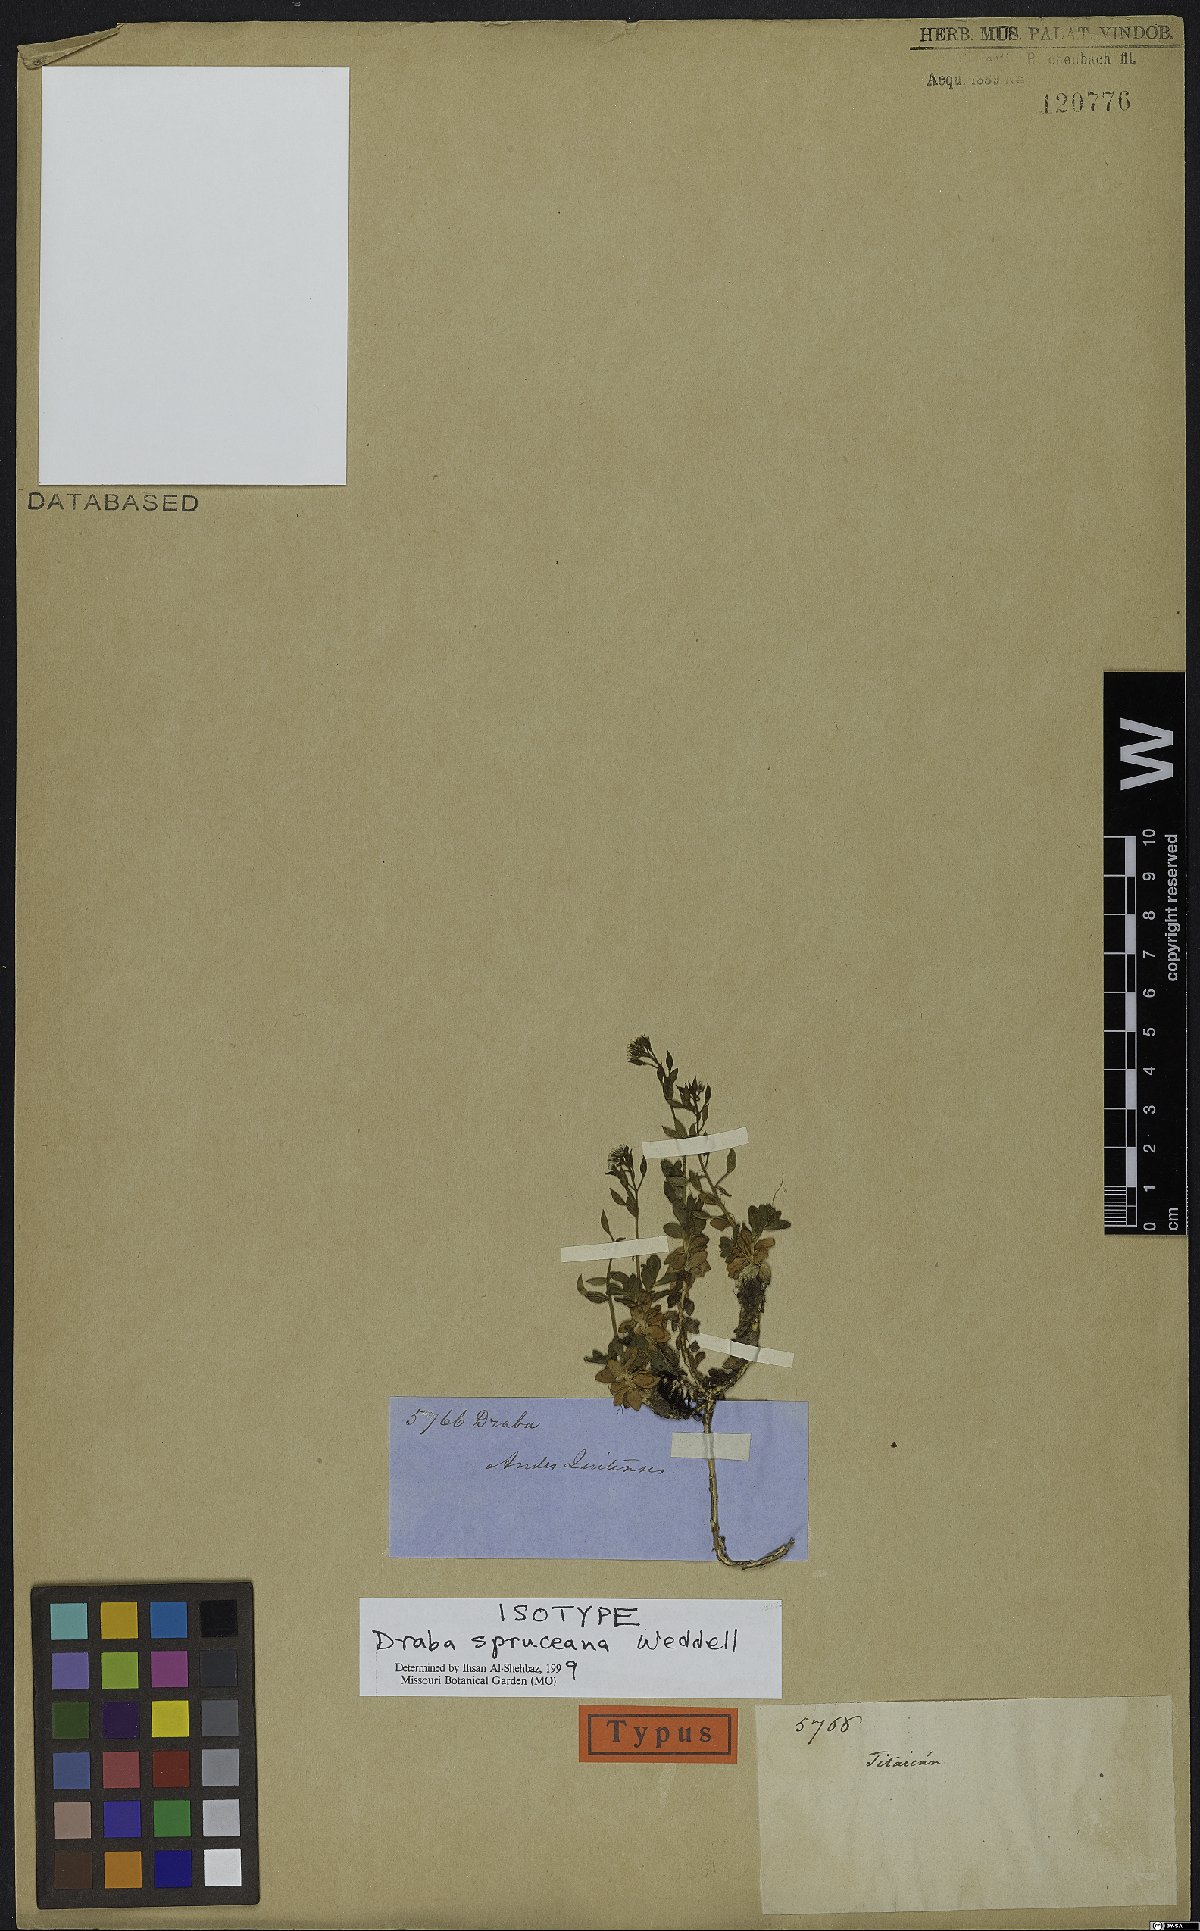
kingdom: Plantae
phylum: Tracheophyta
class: Magnoliopsida
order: Brassicales
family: Brassicaceae
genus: Draba
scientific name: Draba spruceana
